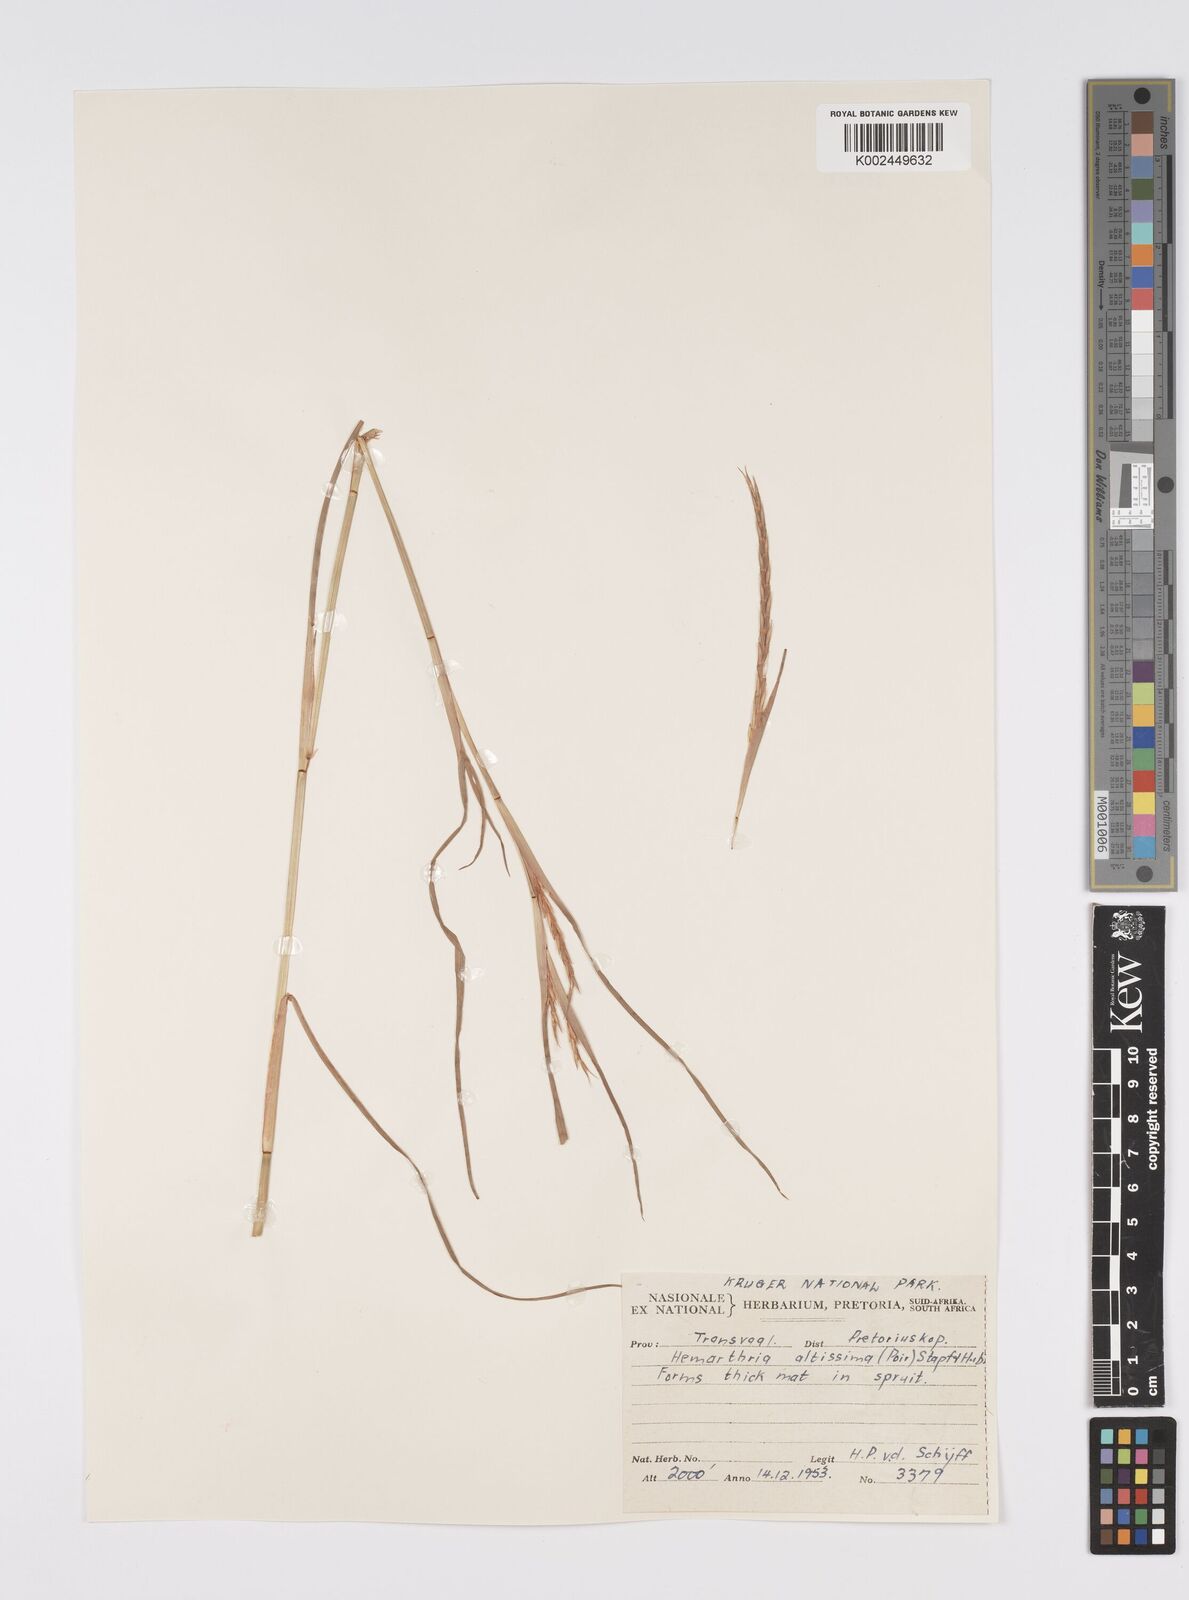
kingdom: Plantae
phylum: Tracheophyta
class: Liliopsida
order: Poales
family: Poaceae
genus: Hemarthria
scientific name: Hemarthria altissima
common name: African jointgrass
